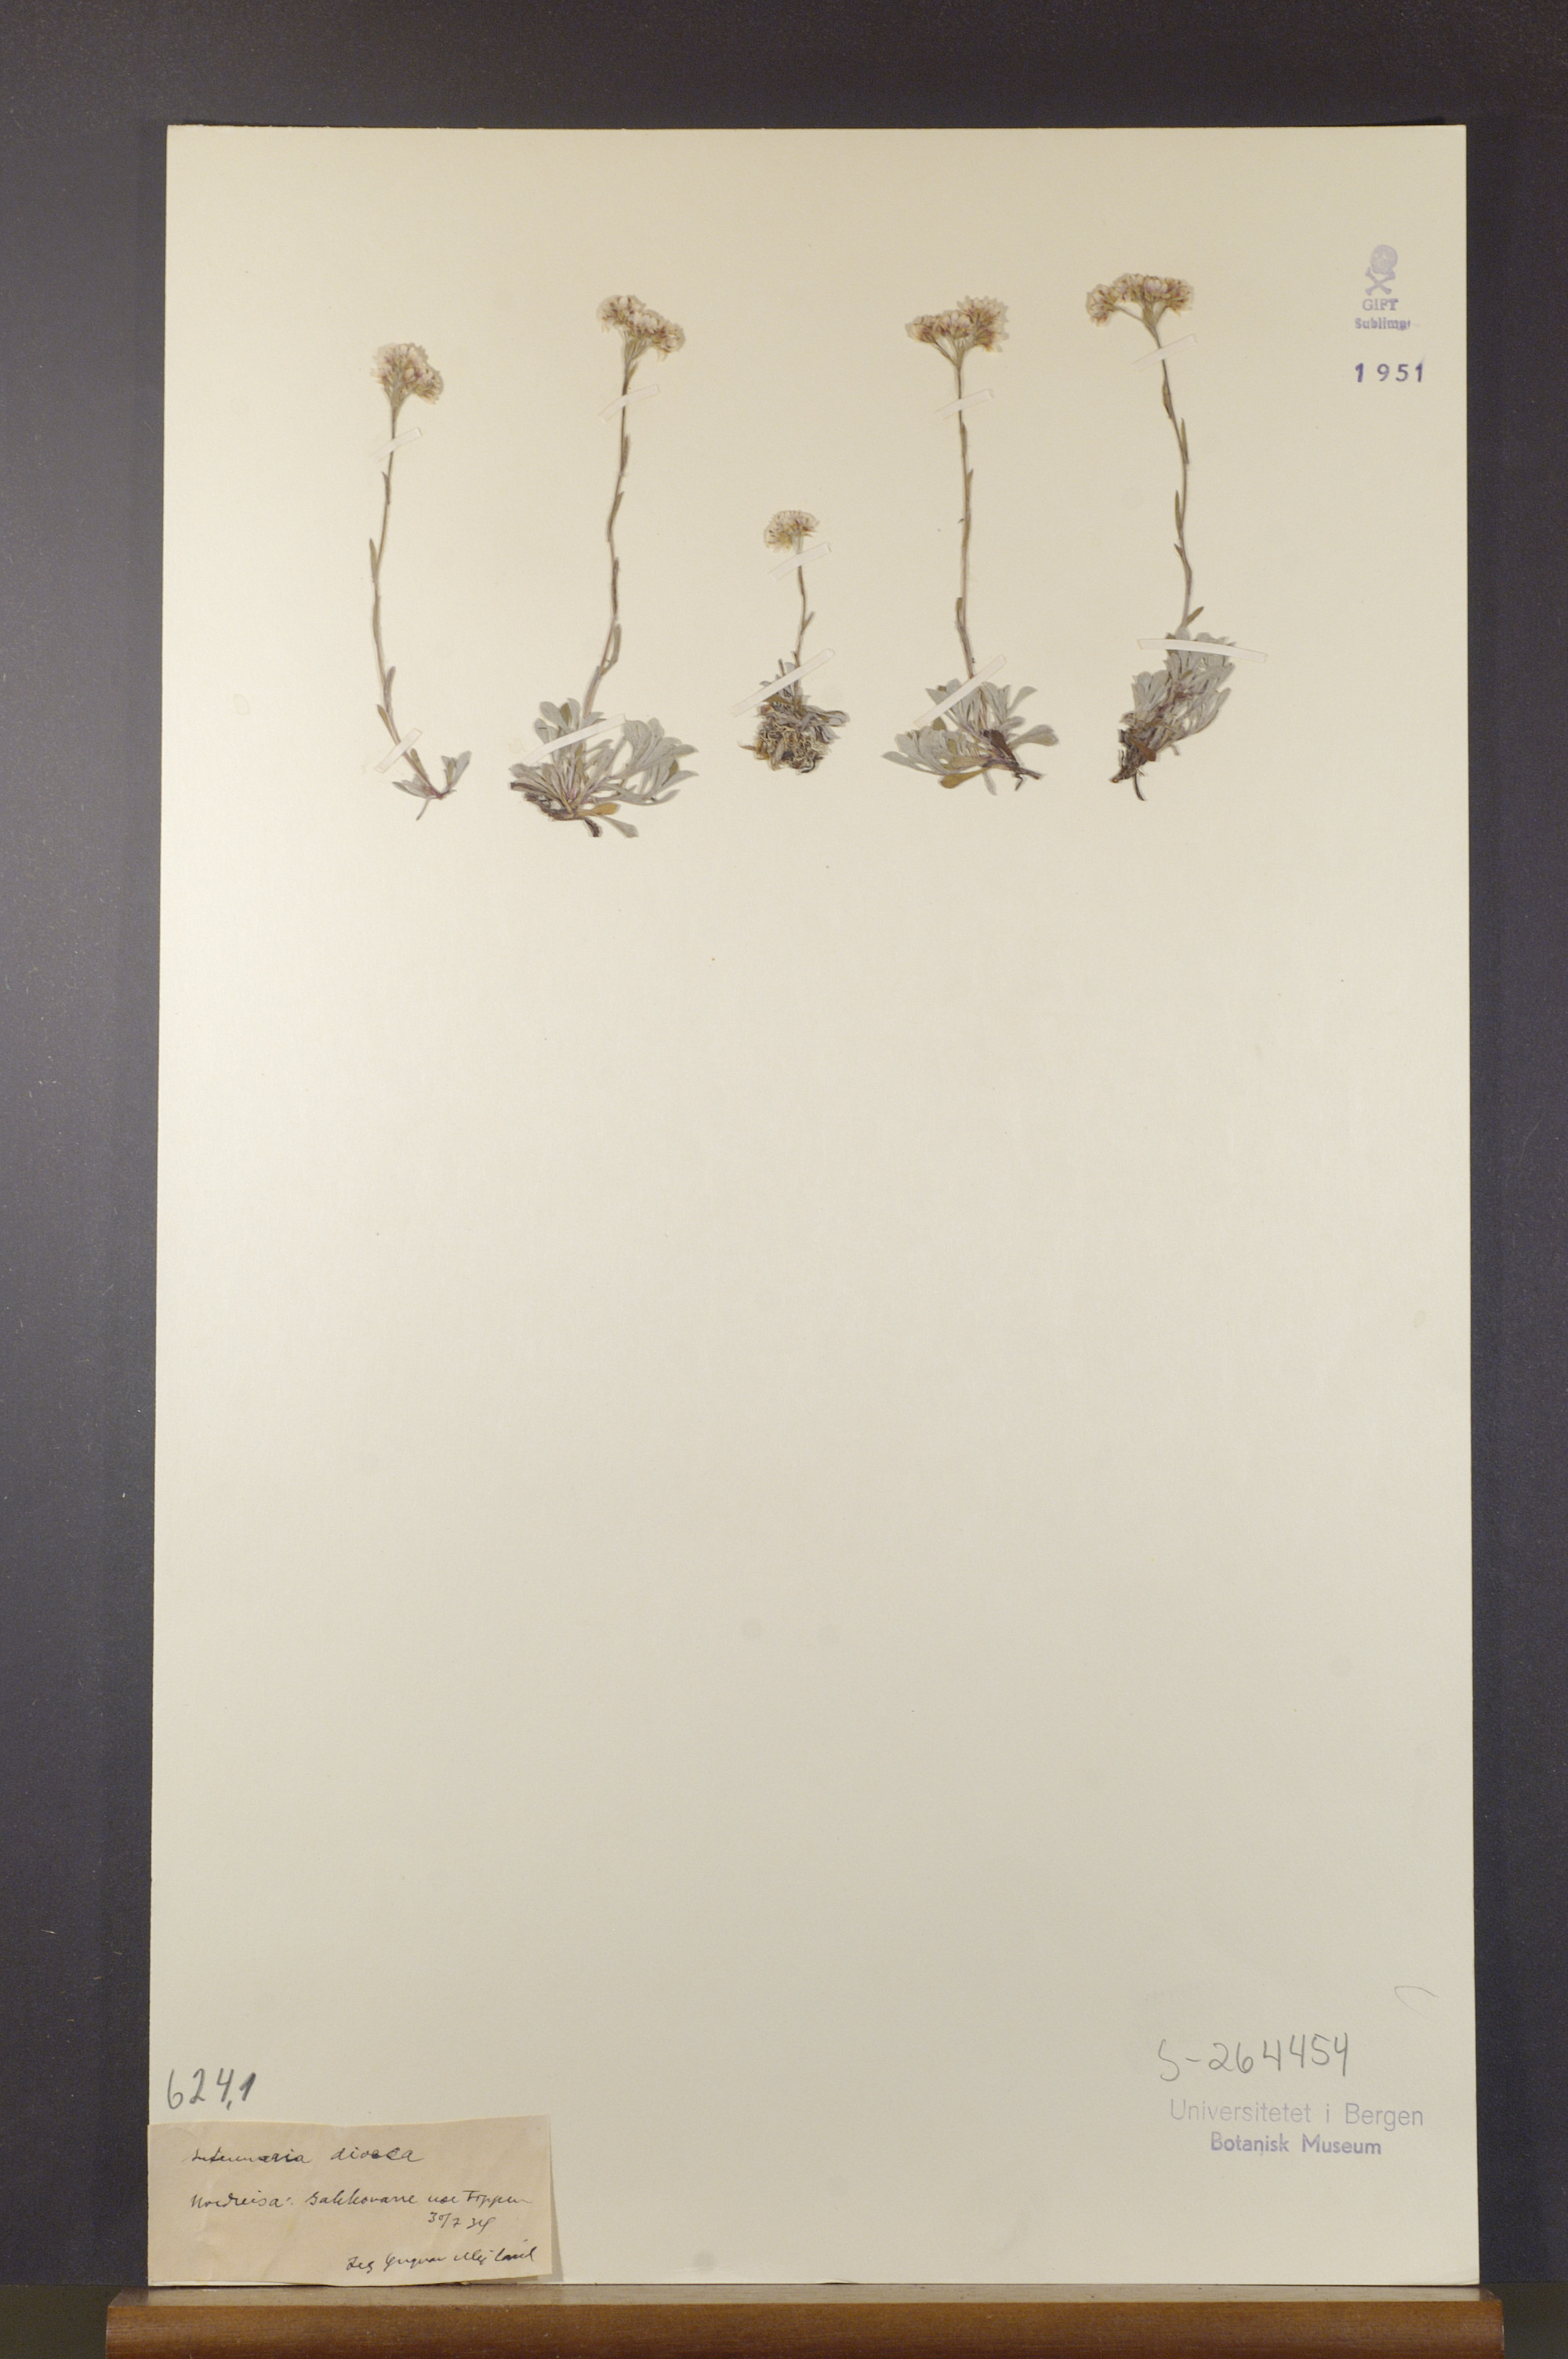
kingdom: Plantae
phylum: Tracheophyta
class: Magnoliopsida
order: Asterales
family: Asteraceae
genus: Antennaria
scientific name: Antennaria dioica
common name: Mountain everlasting
